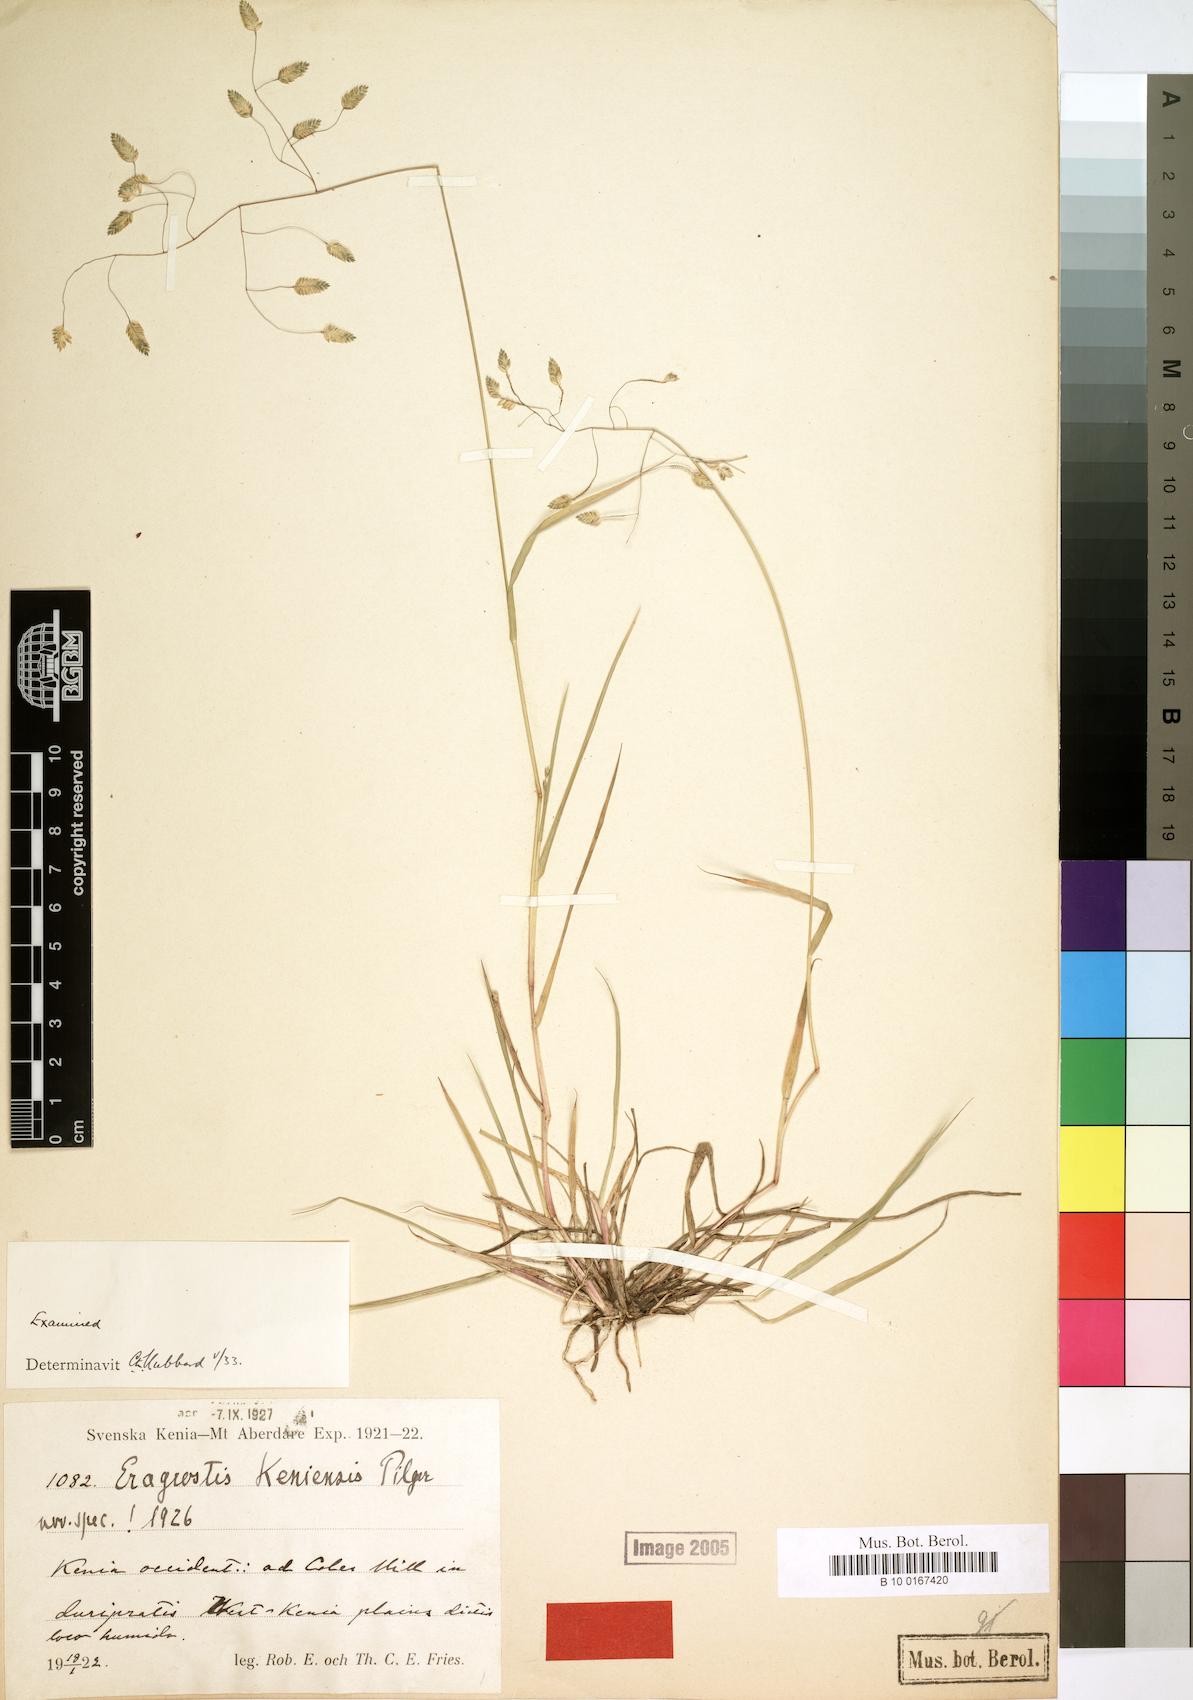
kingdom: Plantae
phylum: Tracheophyta
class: Liliopsida
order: Poales
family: Poaceae
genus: Eragrostis
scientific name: Eragrostis paniciformis
